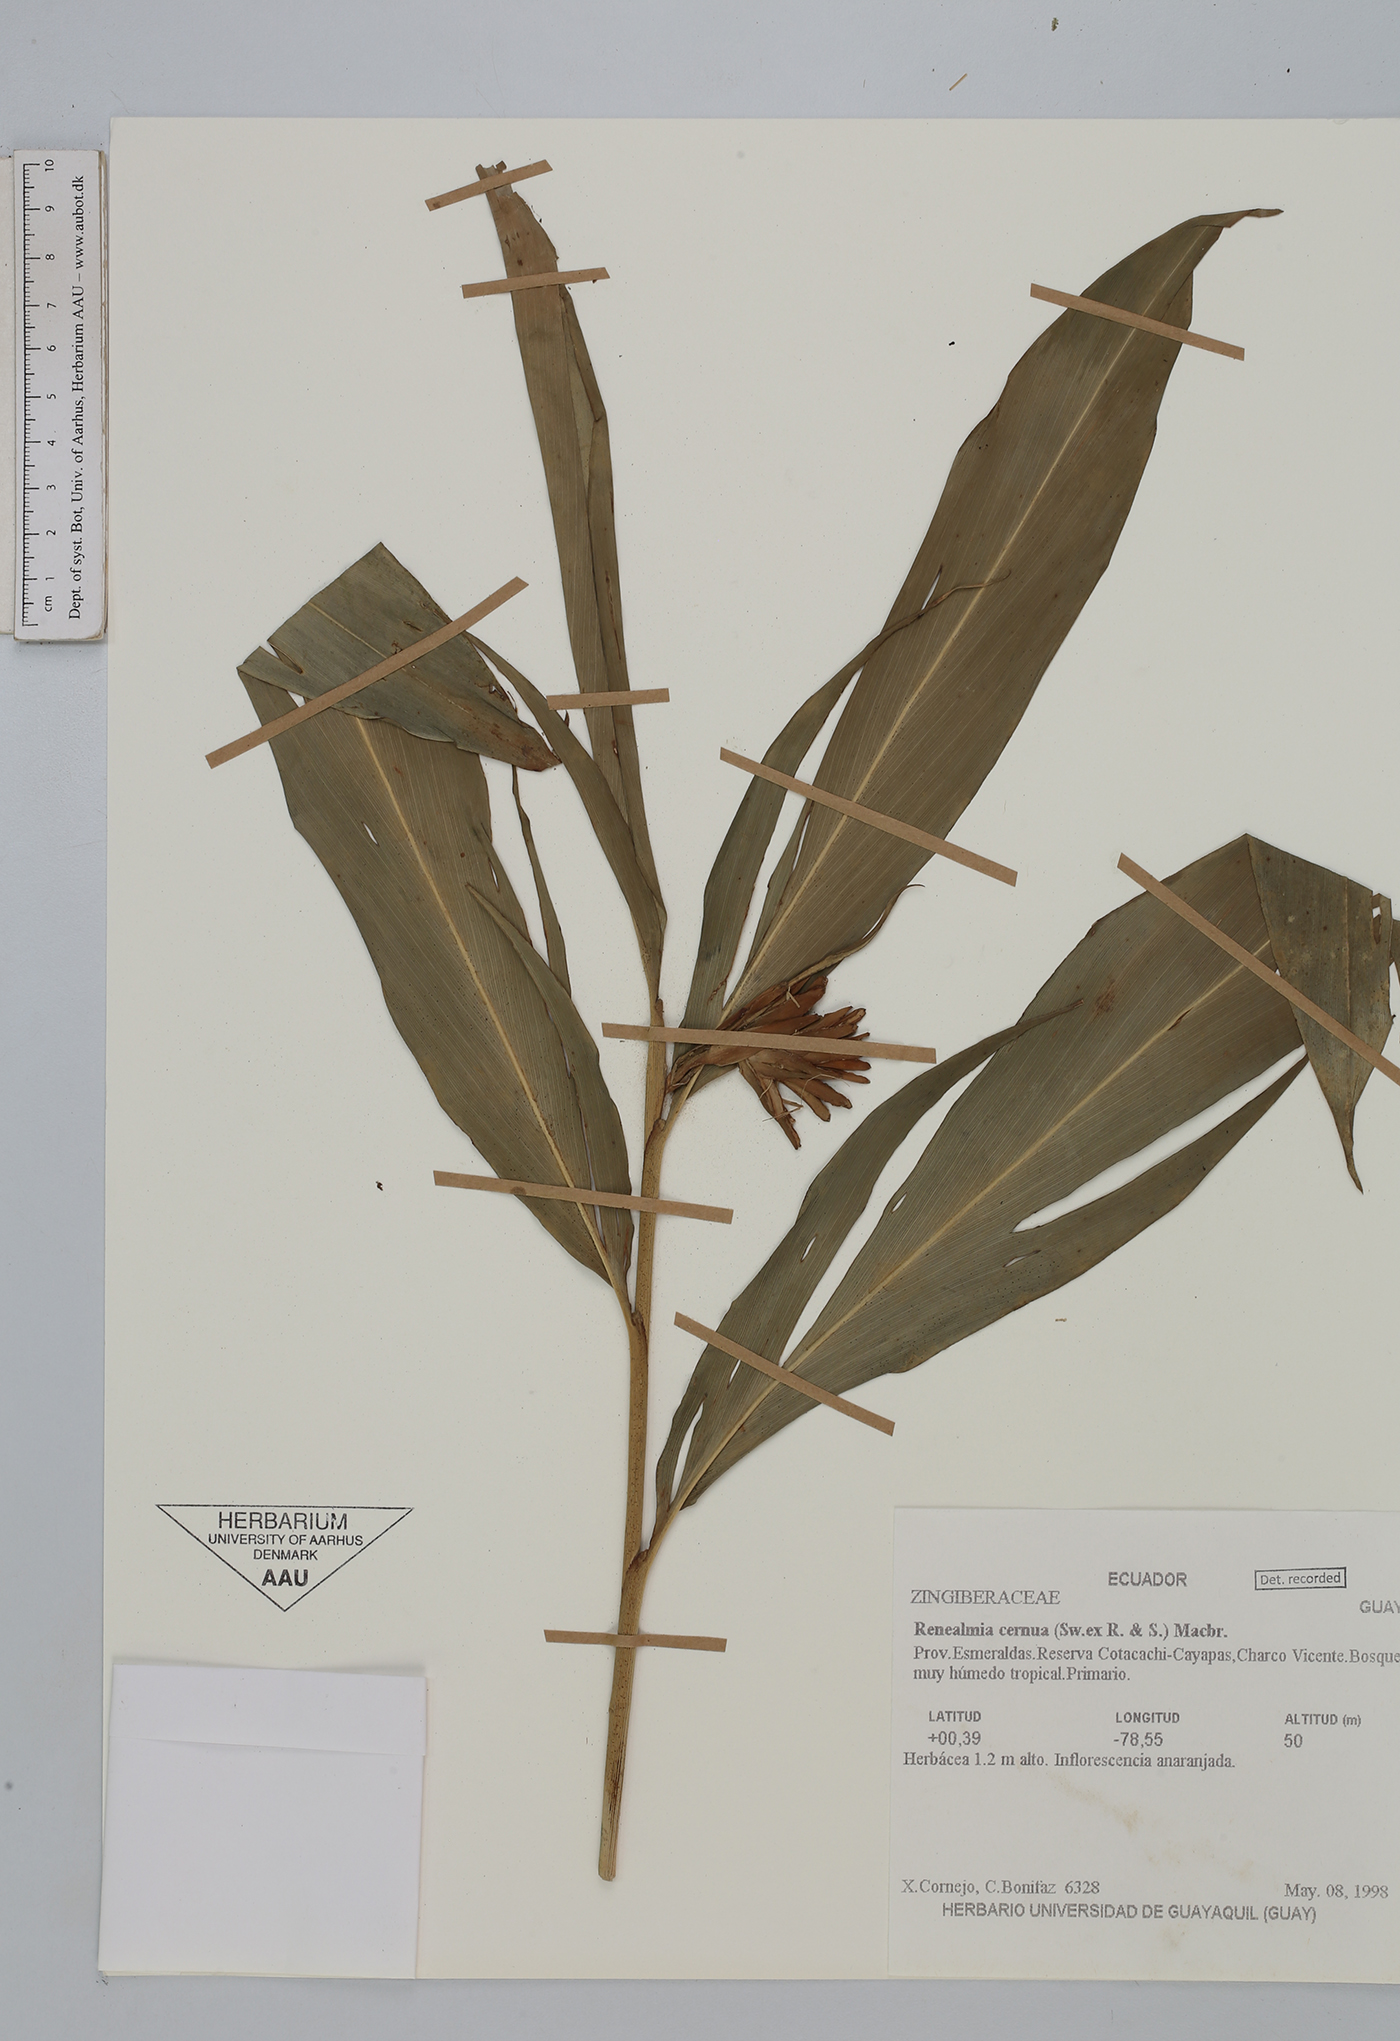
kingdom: Plantae
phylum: Tracheophyta
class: Liliopsida
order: Zingiberales
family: Zingiberaceae
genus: Renealmia
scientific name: Renealmia cernua
